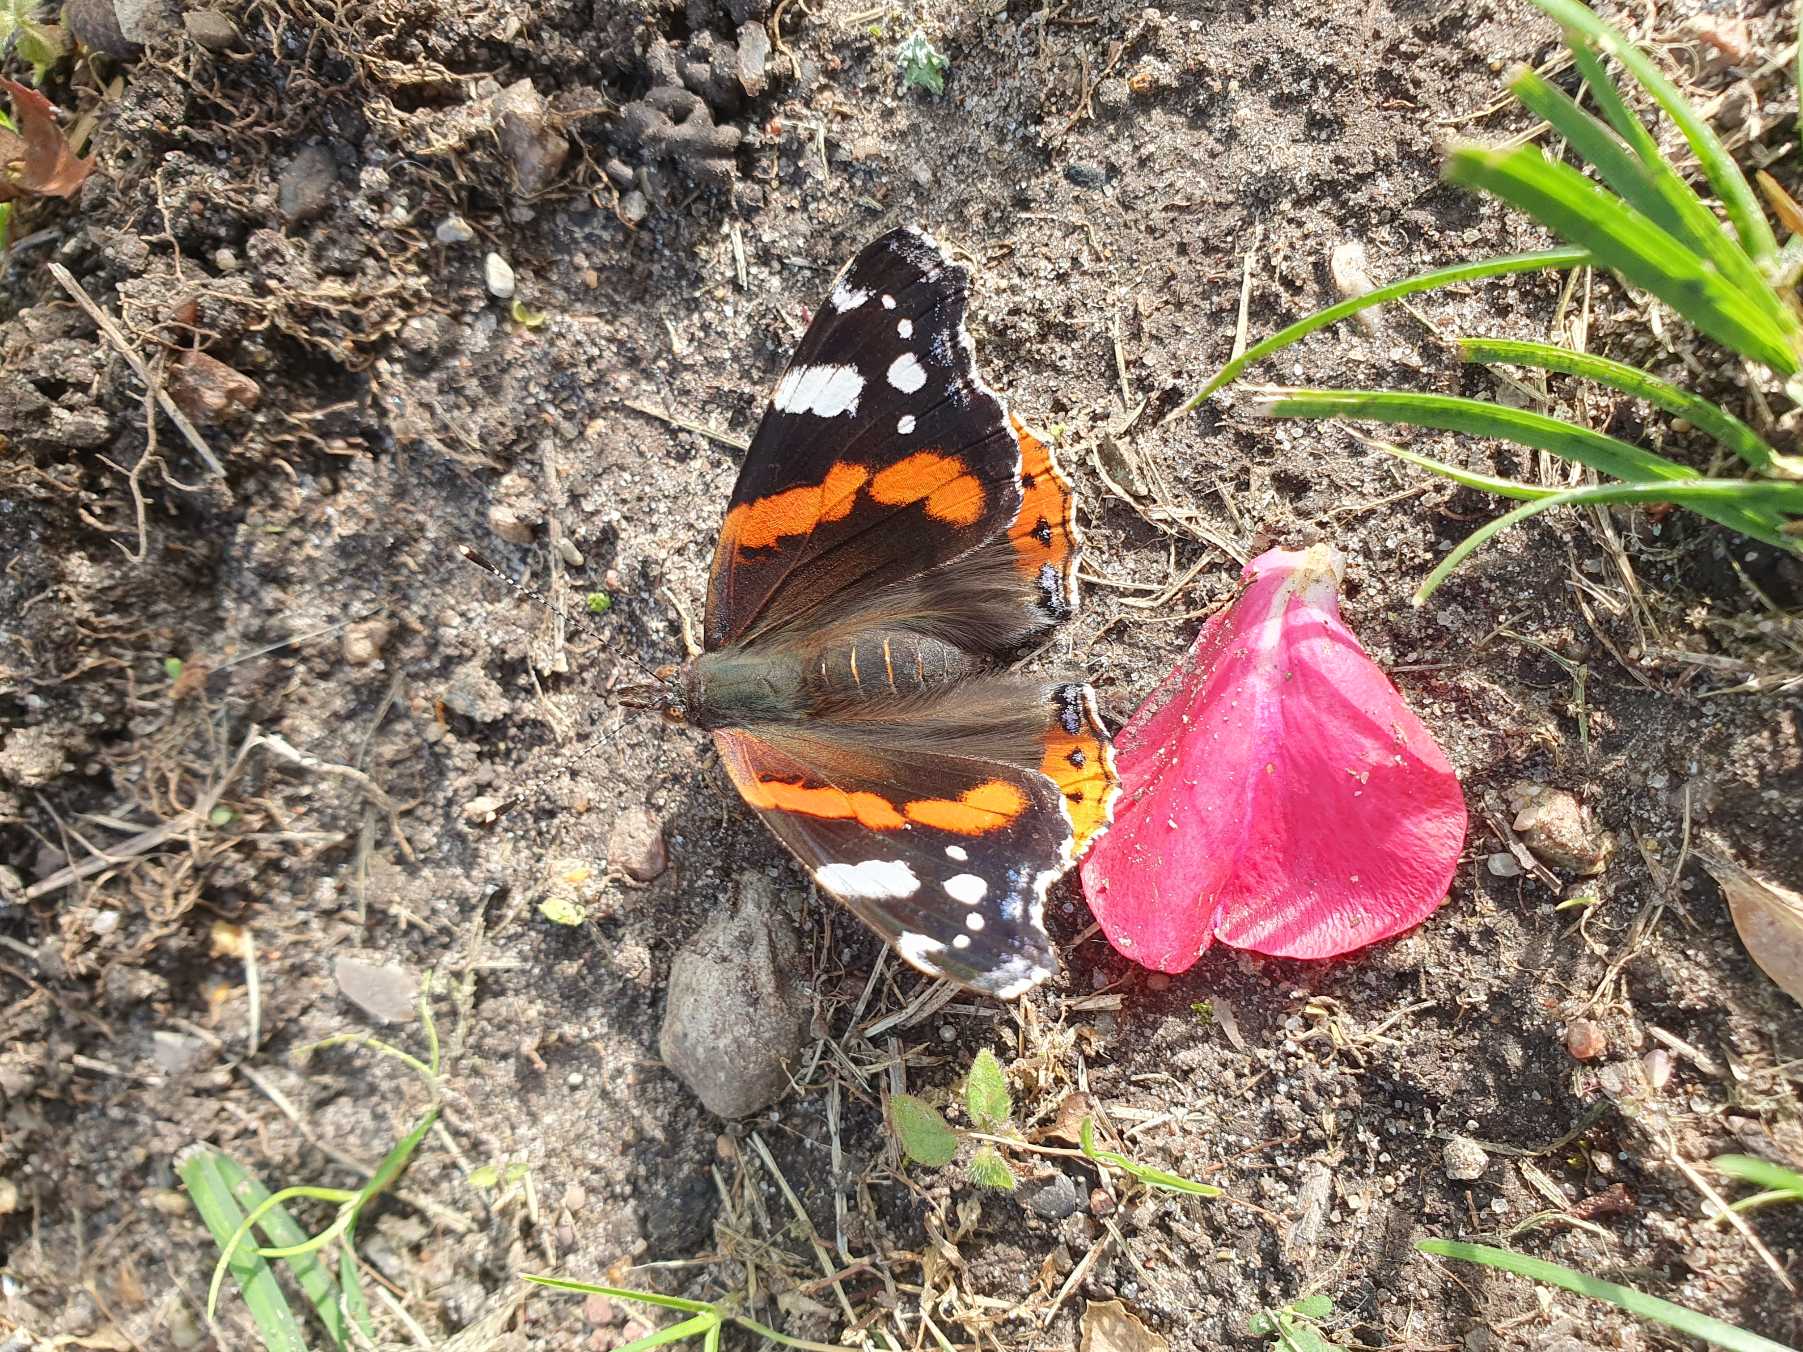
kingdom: Animalia
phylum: Arthropoda
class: Insecta
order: Lepidoptera
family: Nymphalidae
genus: Vanessa
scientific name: Vanessa atalanta
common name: Admiral
